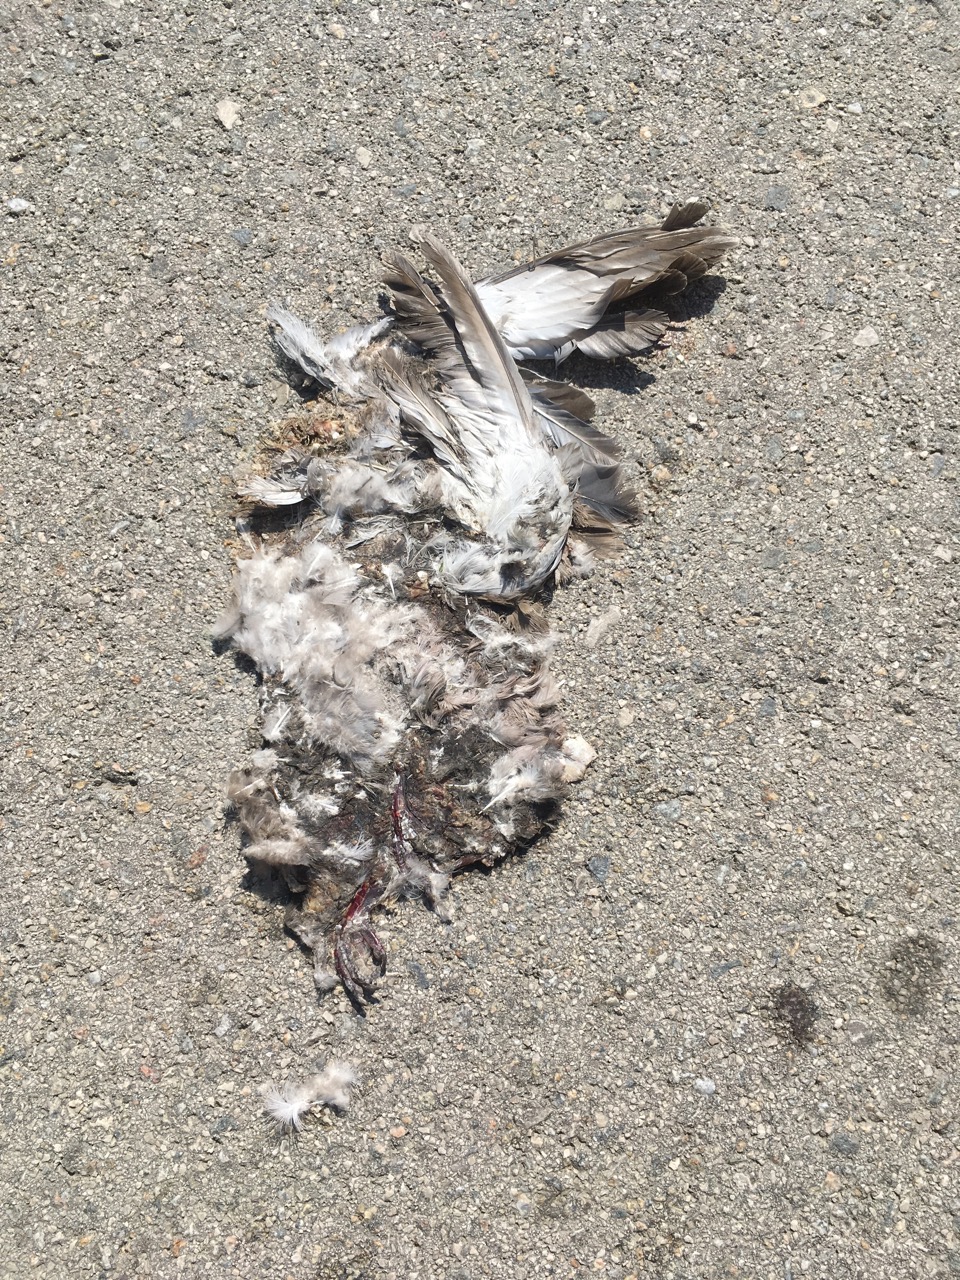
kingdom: Animalia
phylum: Chordata
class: Aves
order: Columbiformes
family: Columbidae
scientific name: Columbidae
